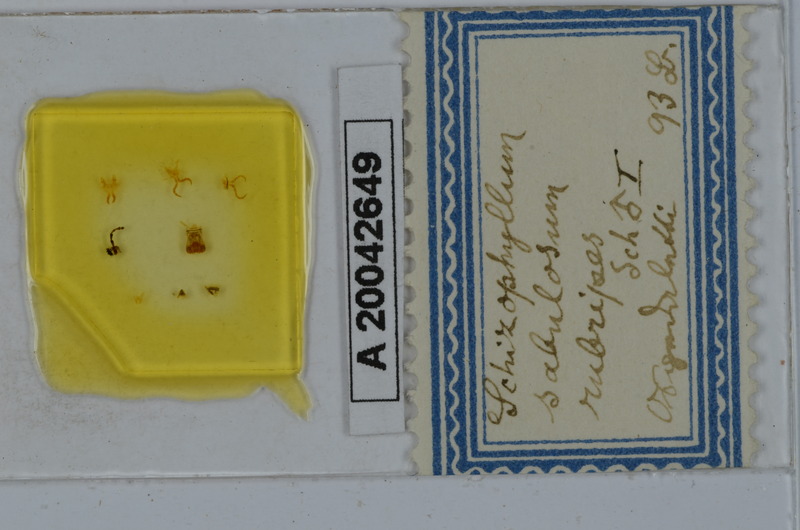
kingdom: Animalia
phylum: Arthropoda
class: Diplopoda
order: Julida
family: Julidae
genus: Schizophyllum
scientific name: Schizophyllum sabulosum
